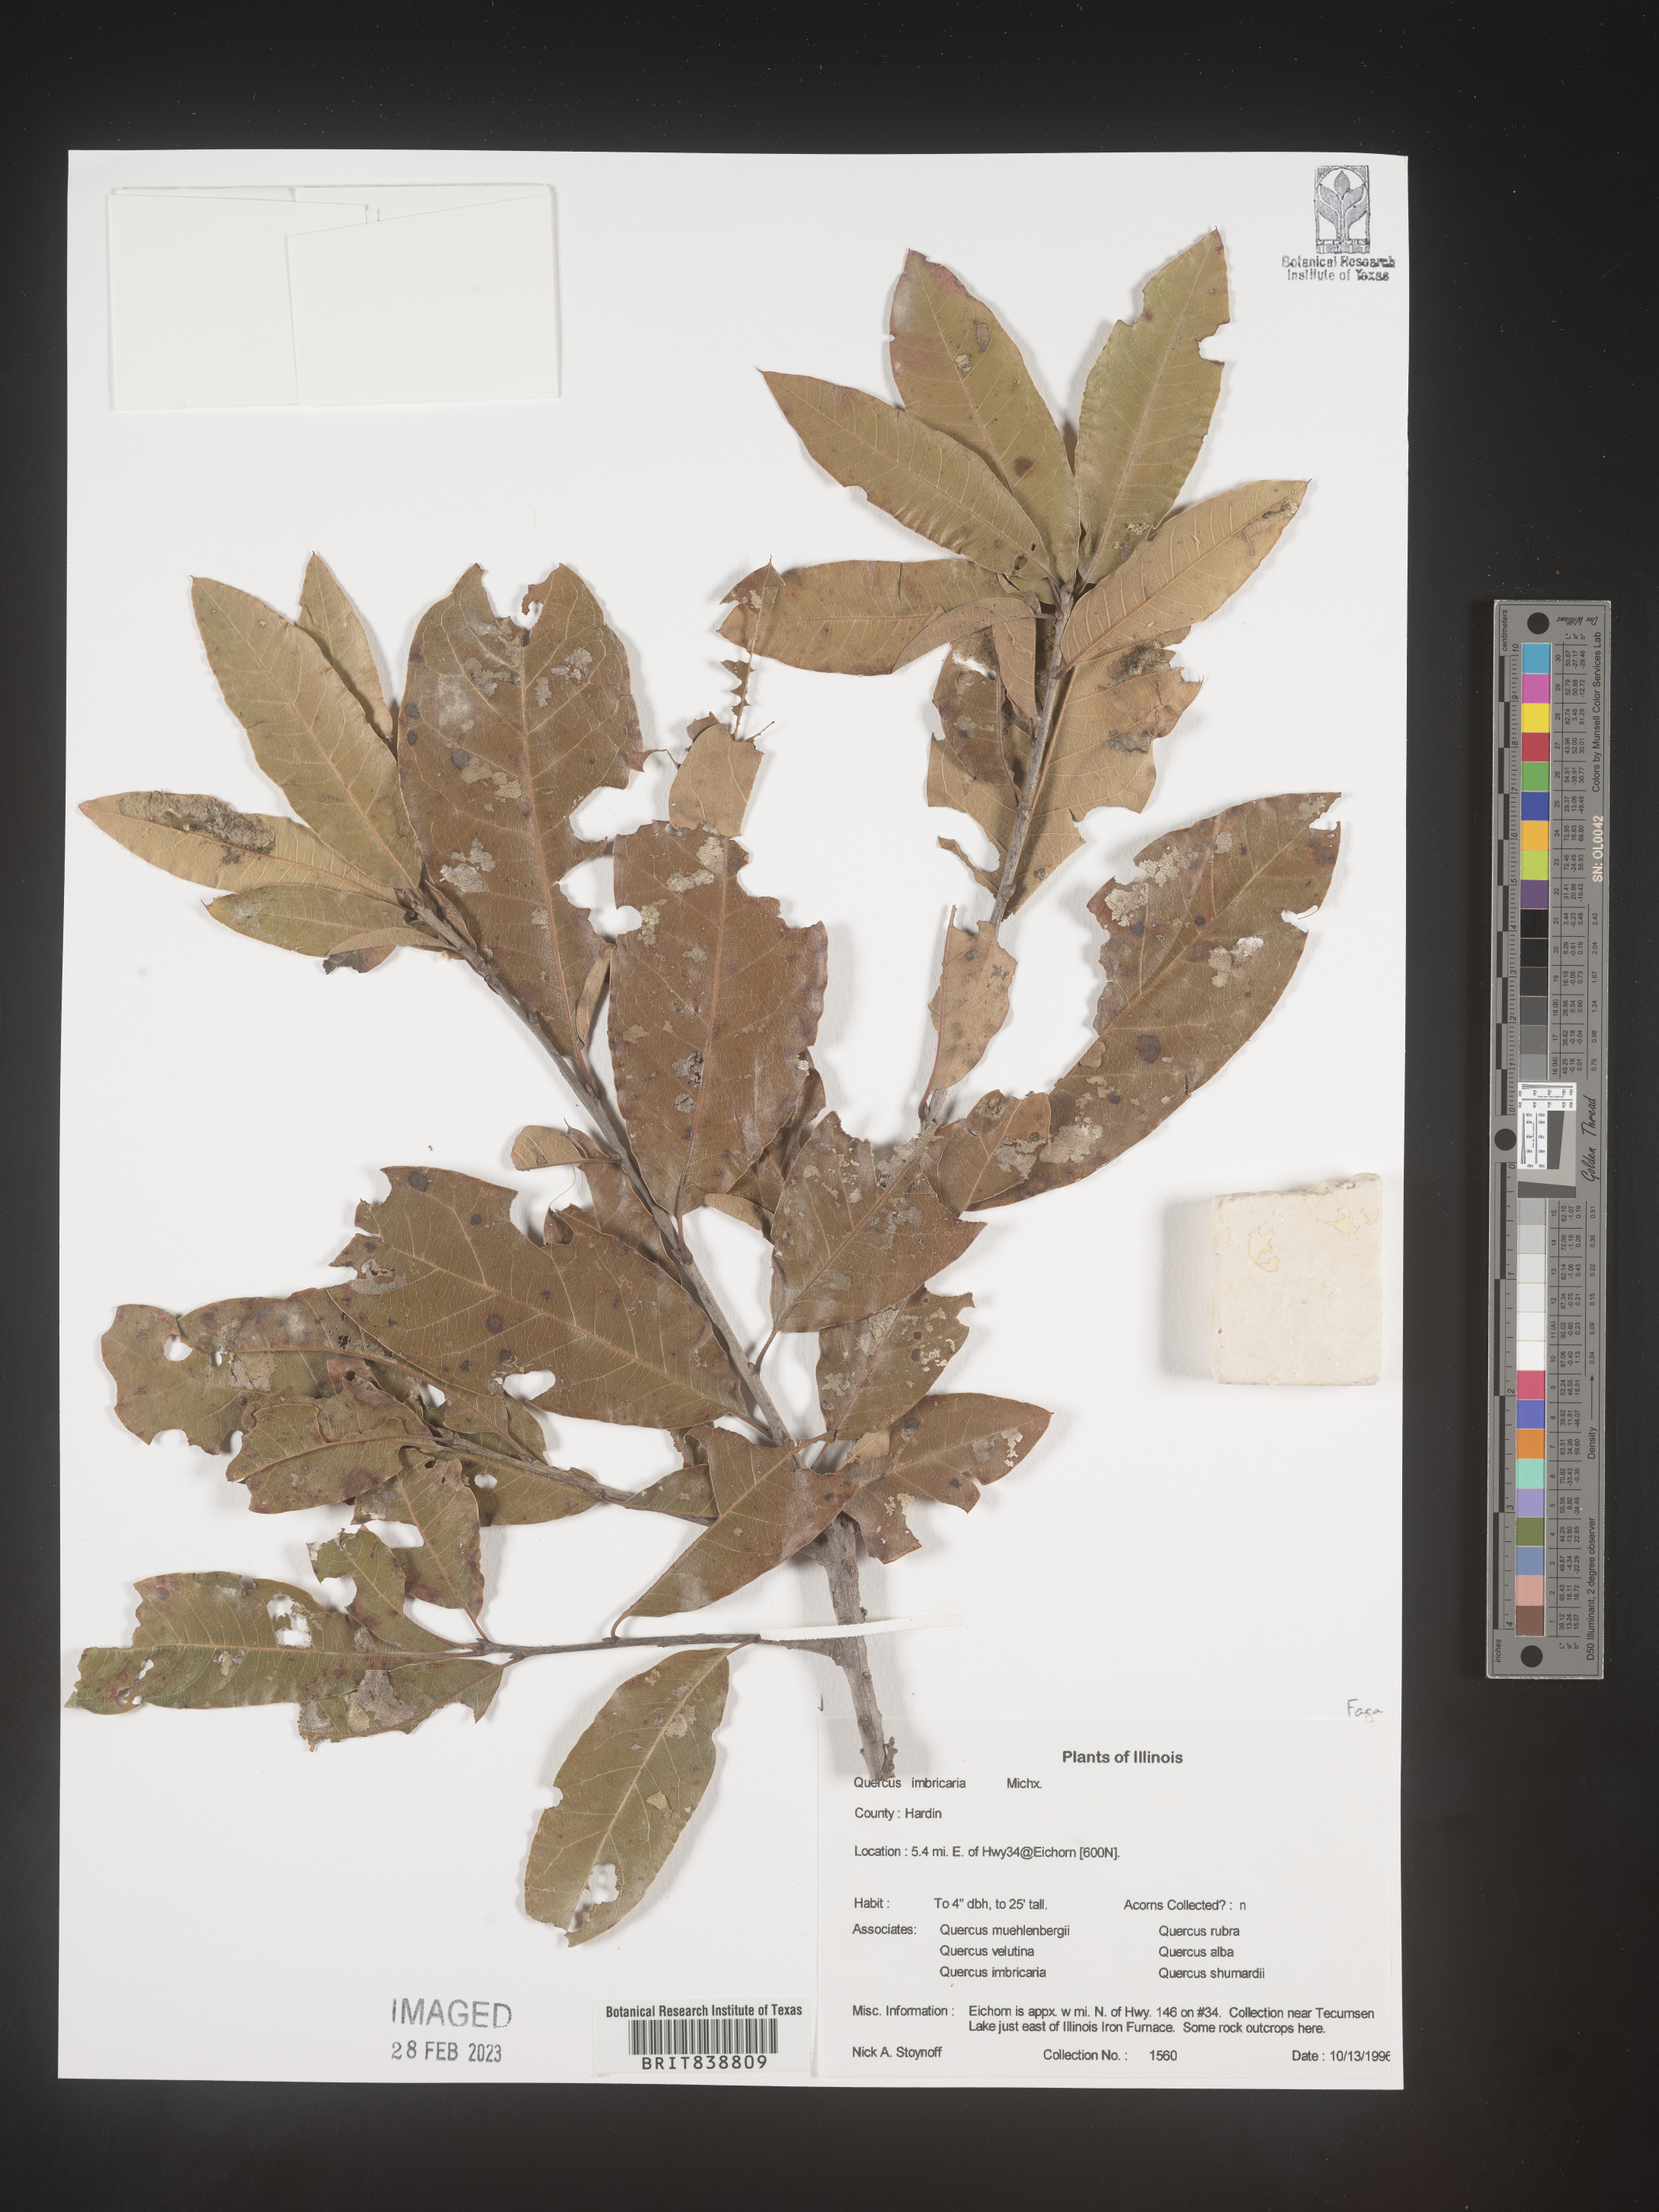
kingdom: Plantae
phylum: Tracheophyta
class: Magnoliopsida
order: Fagales
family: Fagaceae
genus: Quercus
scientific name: Quercus imbricaria
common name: Shingle oak
